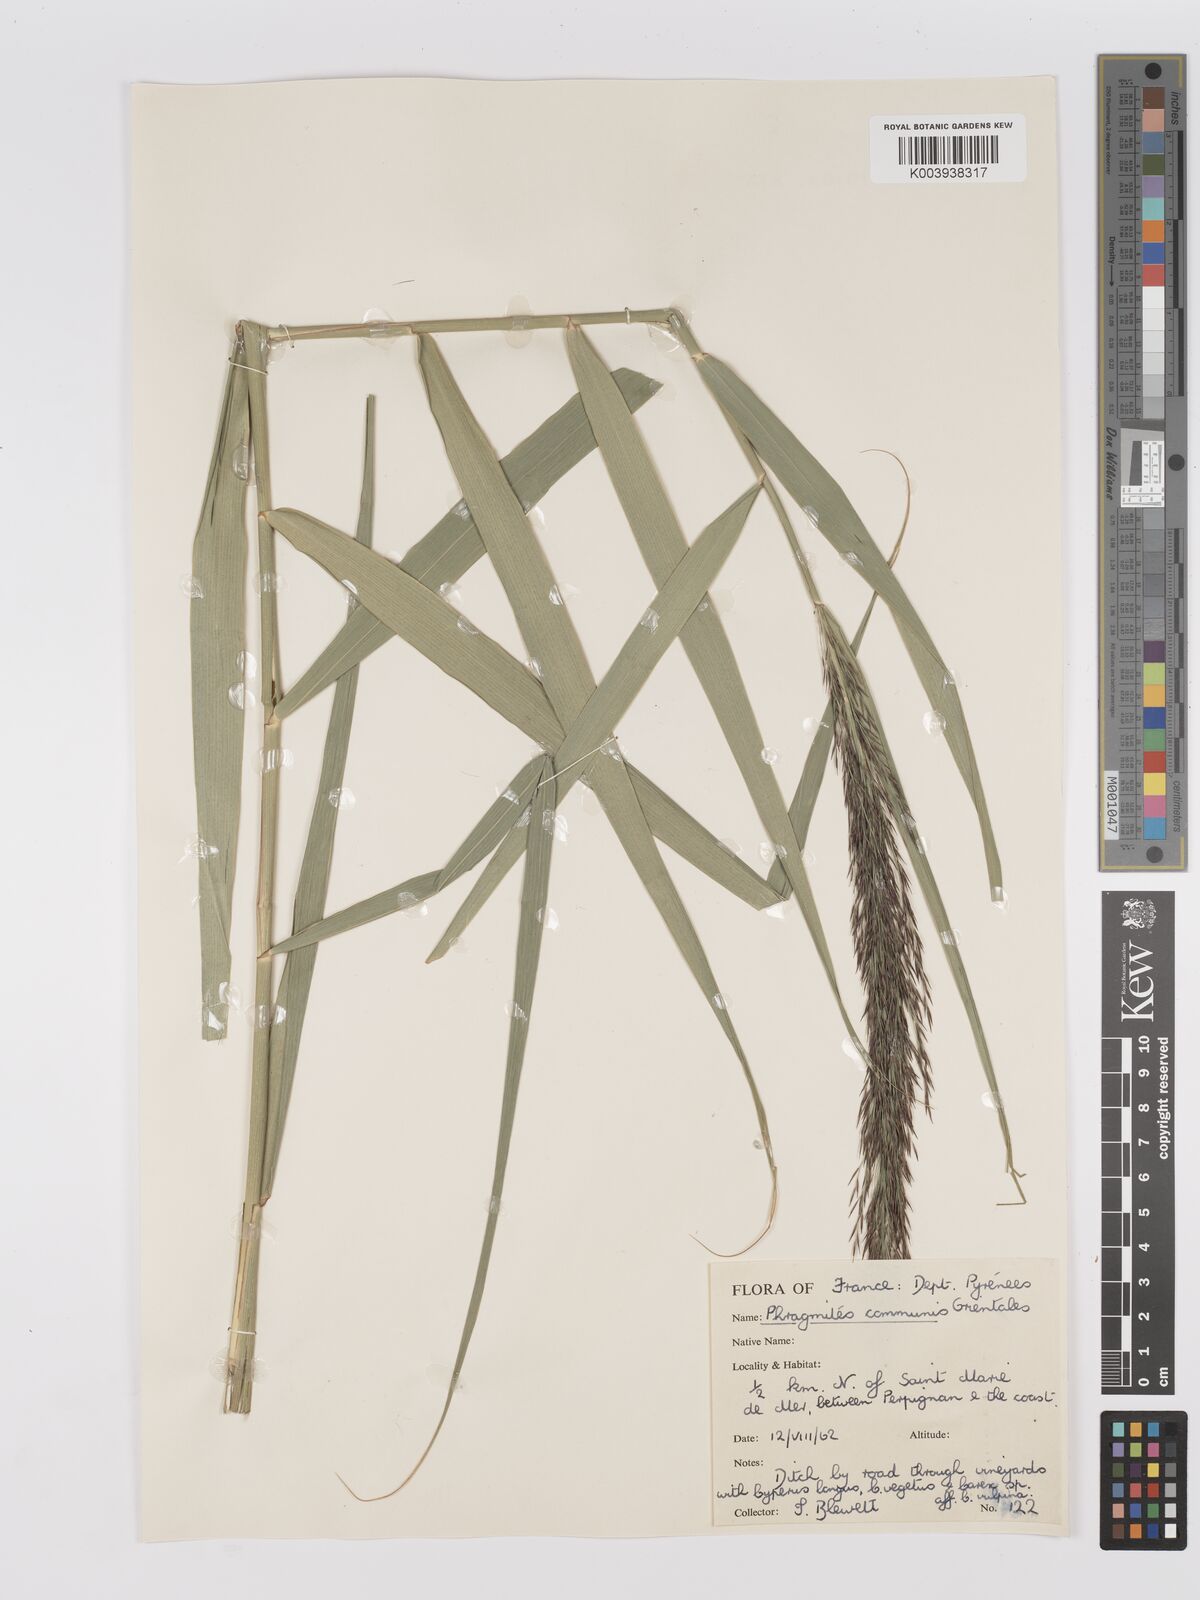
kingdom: Plantae
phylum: Tracheophyta
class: Liliopsida
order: Poales
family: Poaceae
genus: Phragmites
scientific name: Phragmites australis
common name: Common reed
